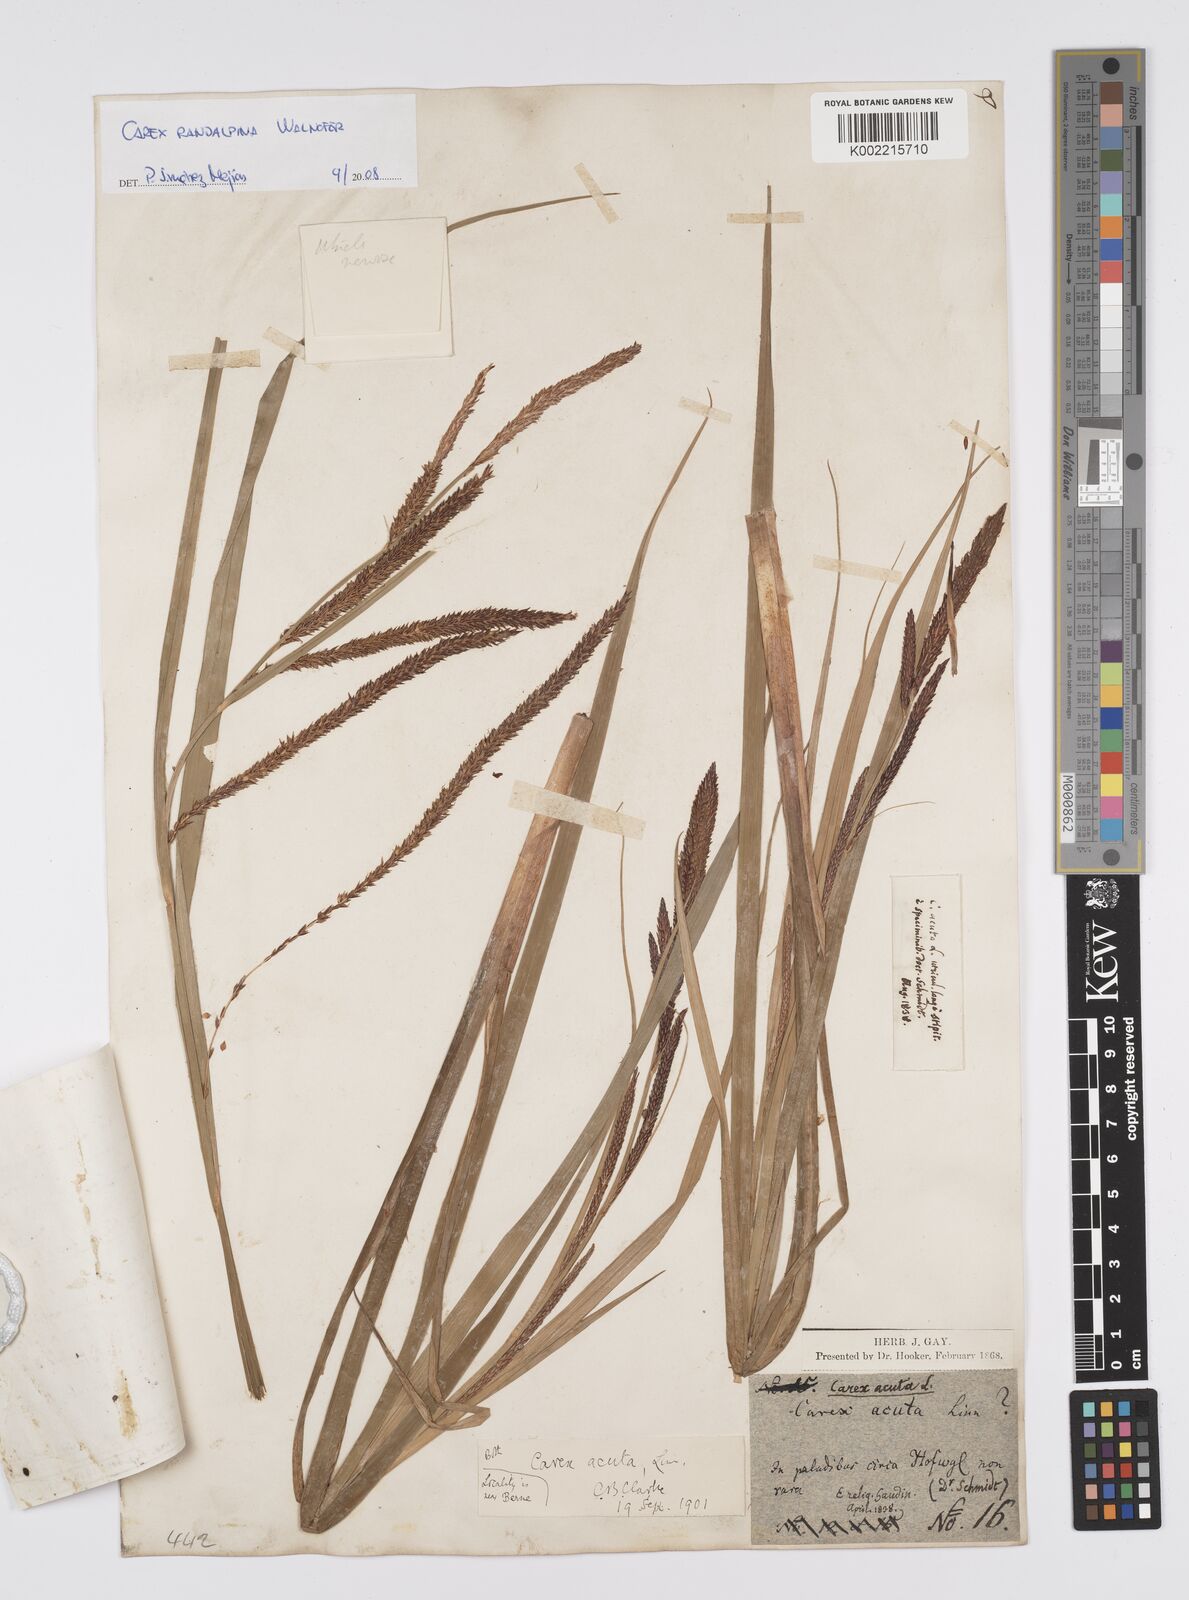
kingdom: Plantae
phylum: Tracheophyta
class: Liliopsida
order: Poales
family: Cyperaceae
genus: Carex
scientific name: Carex randalpina
